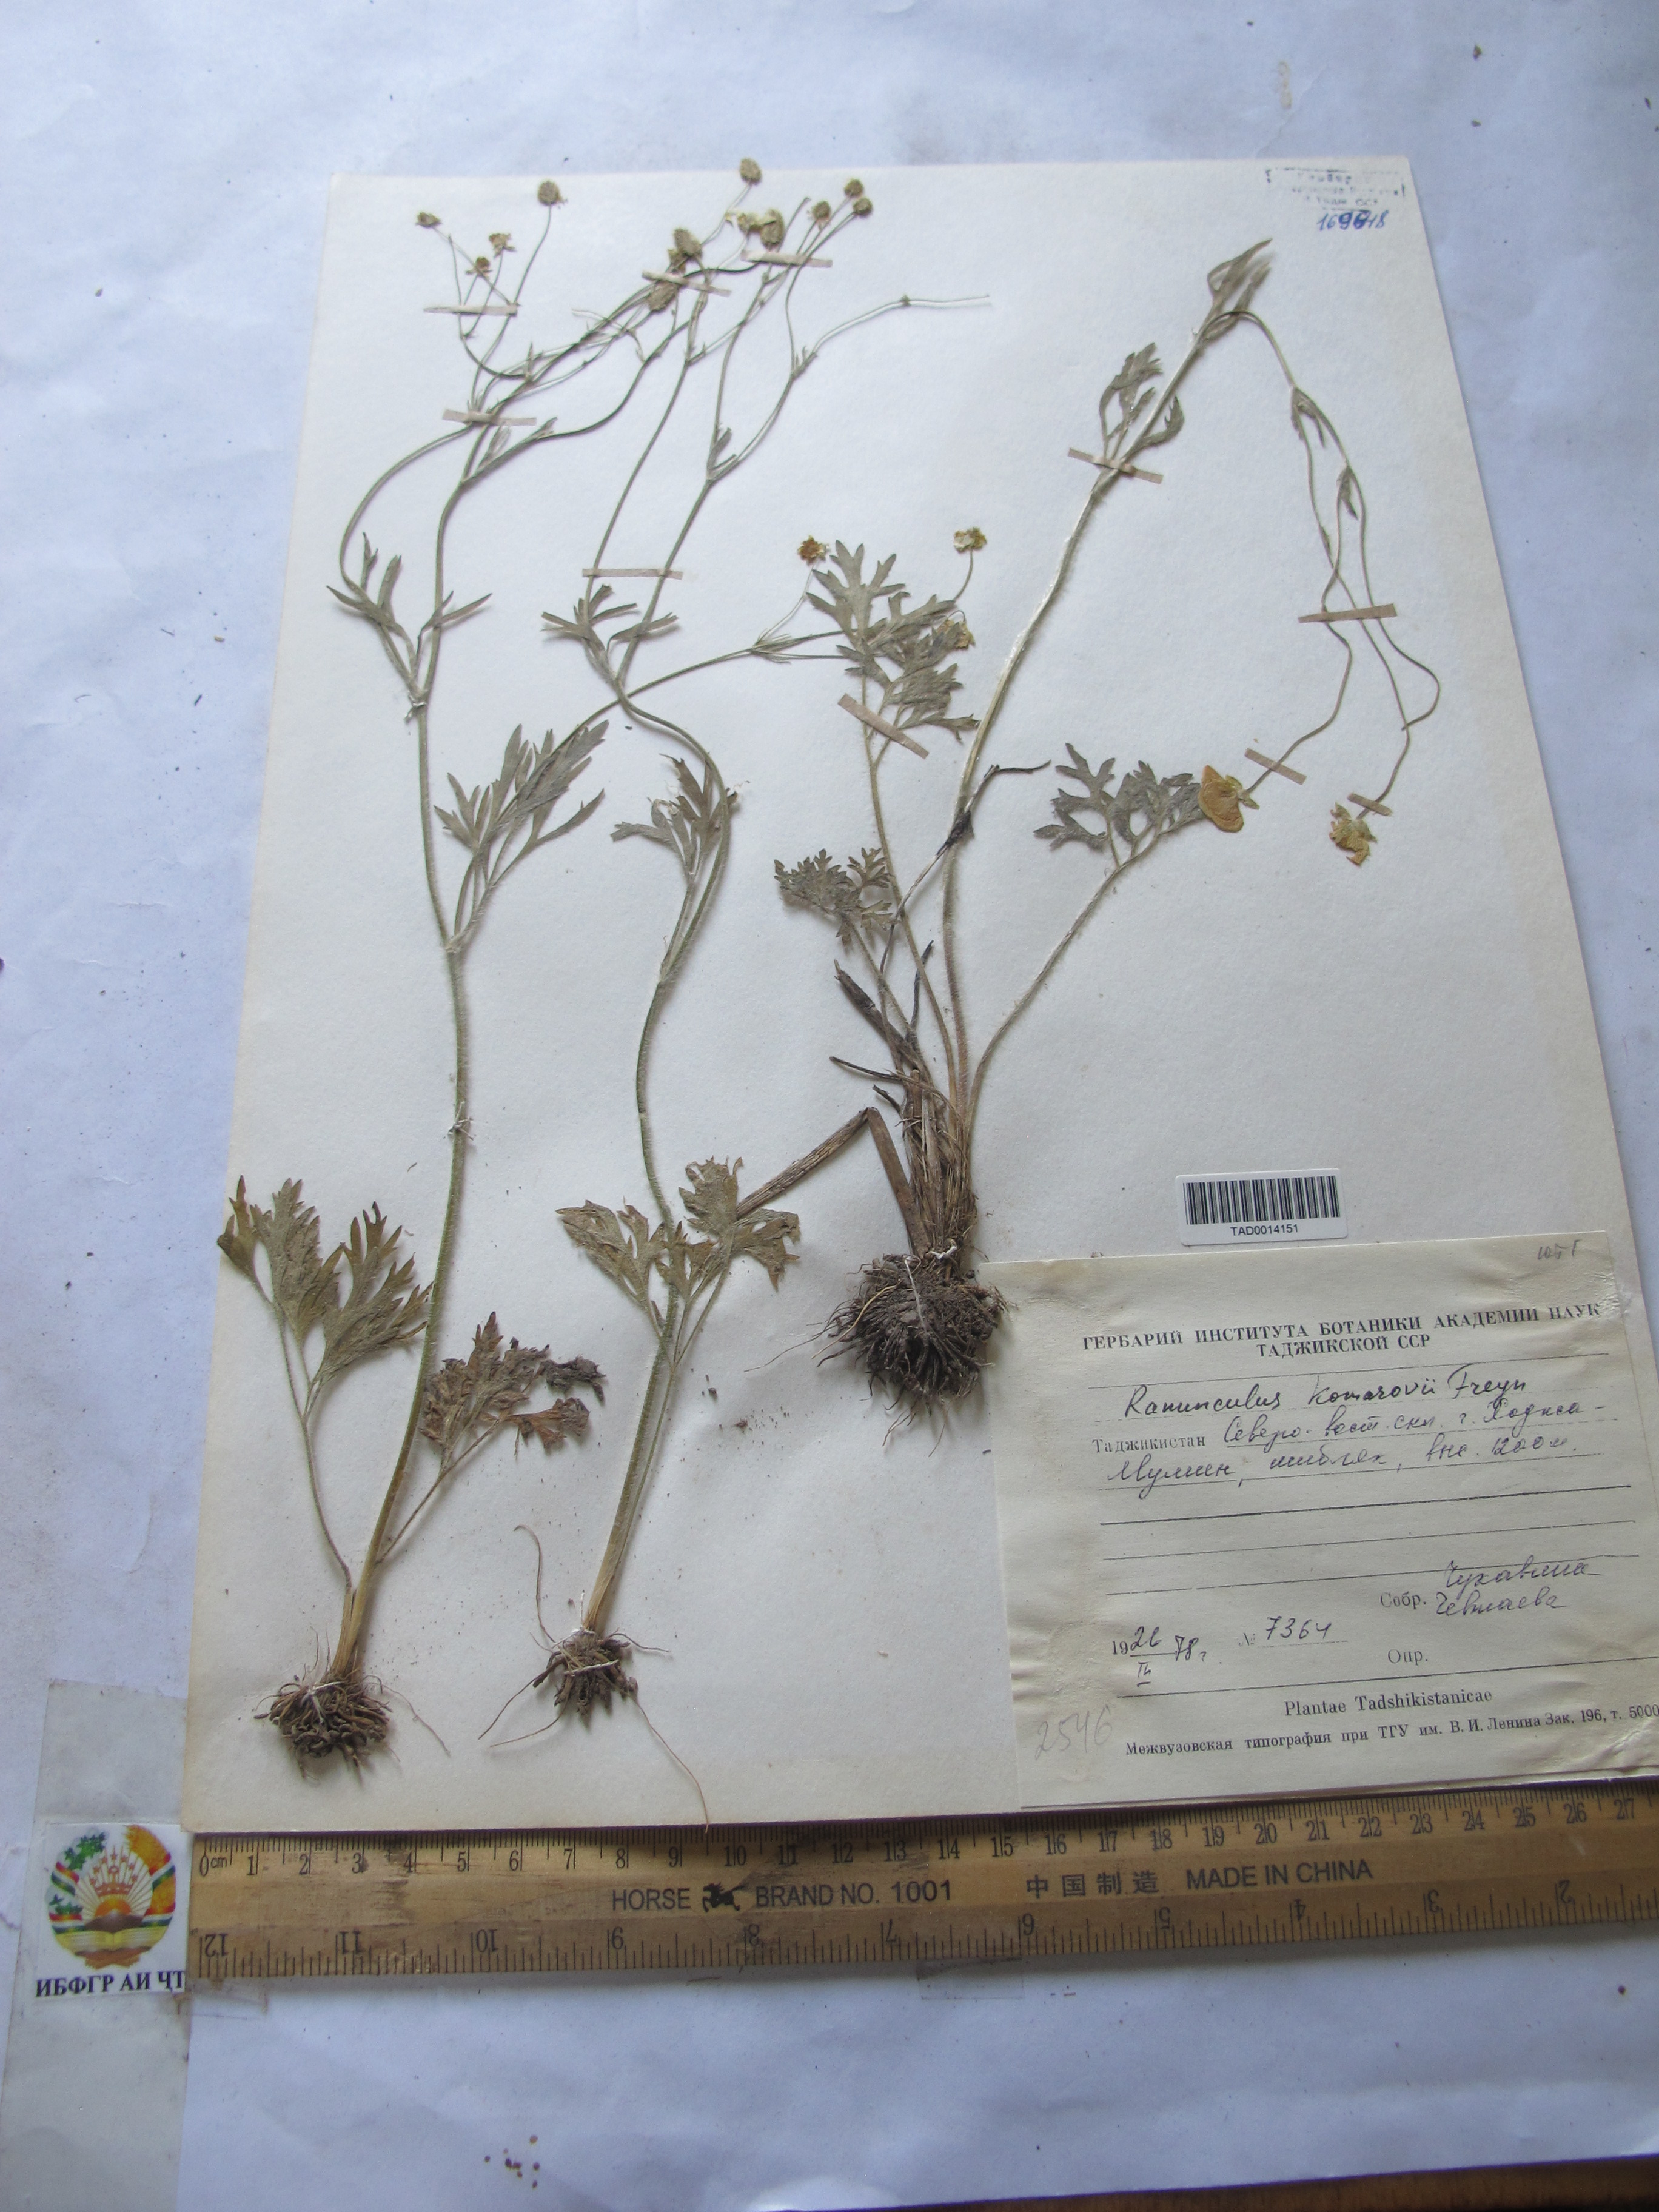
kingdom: Plantae
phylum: Tracheophyta
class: Magnoliopsida
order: Ranunculales
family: Ranunculaceae
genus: Ranunculus
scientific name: Ranunculus komarovii
